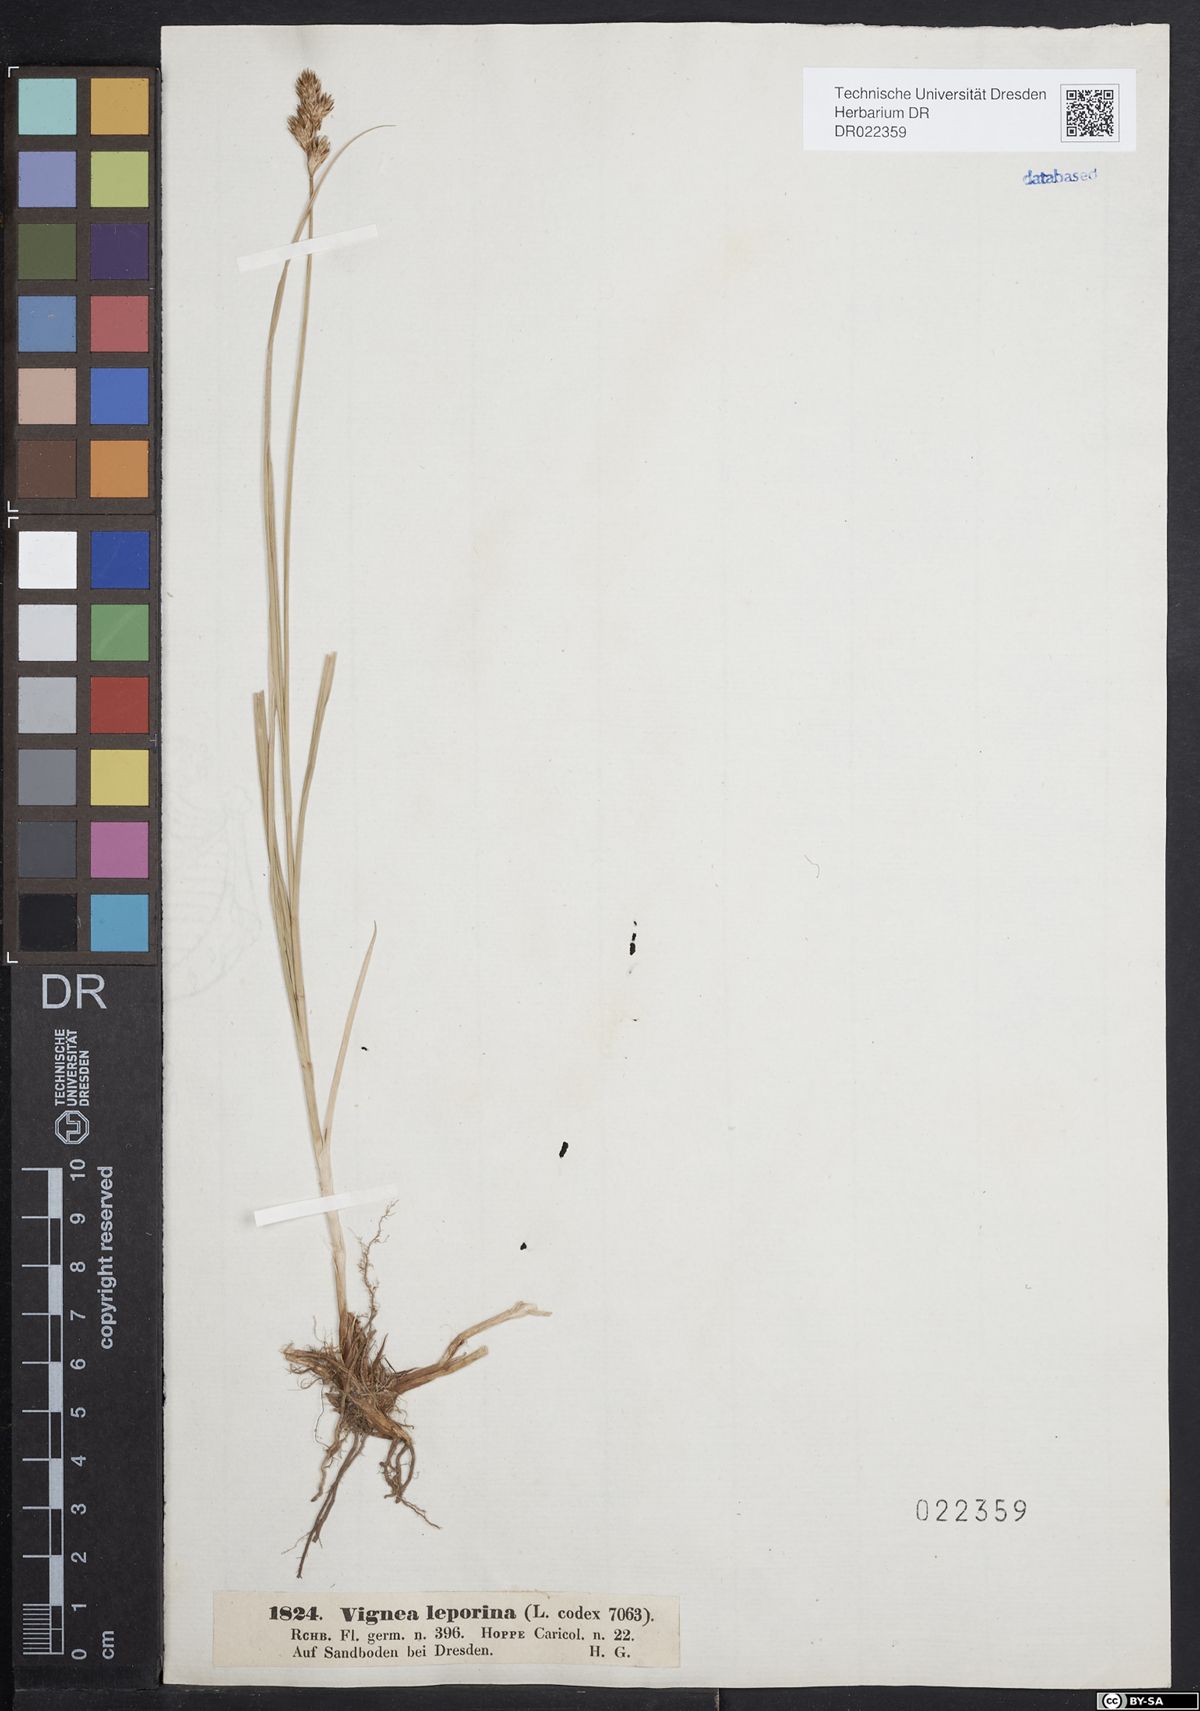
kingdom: Plantae
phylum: Tracheophyta
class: Liliopsida
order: Poales
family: Cyperaceae
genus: Carex
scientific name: Carex leporina
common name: Oval sedge
